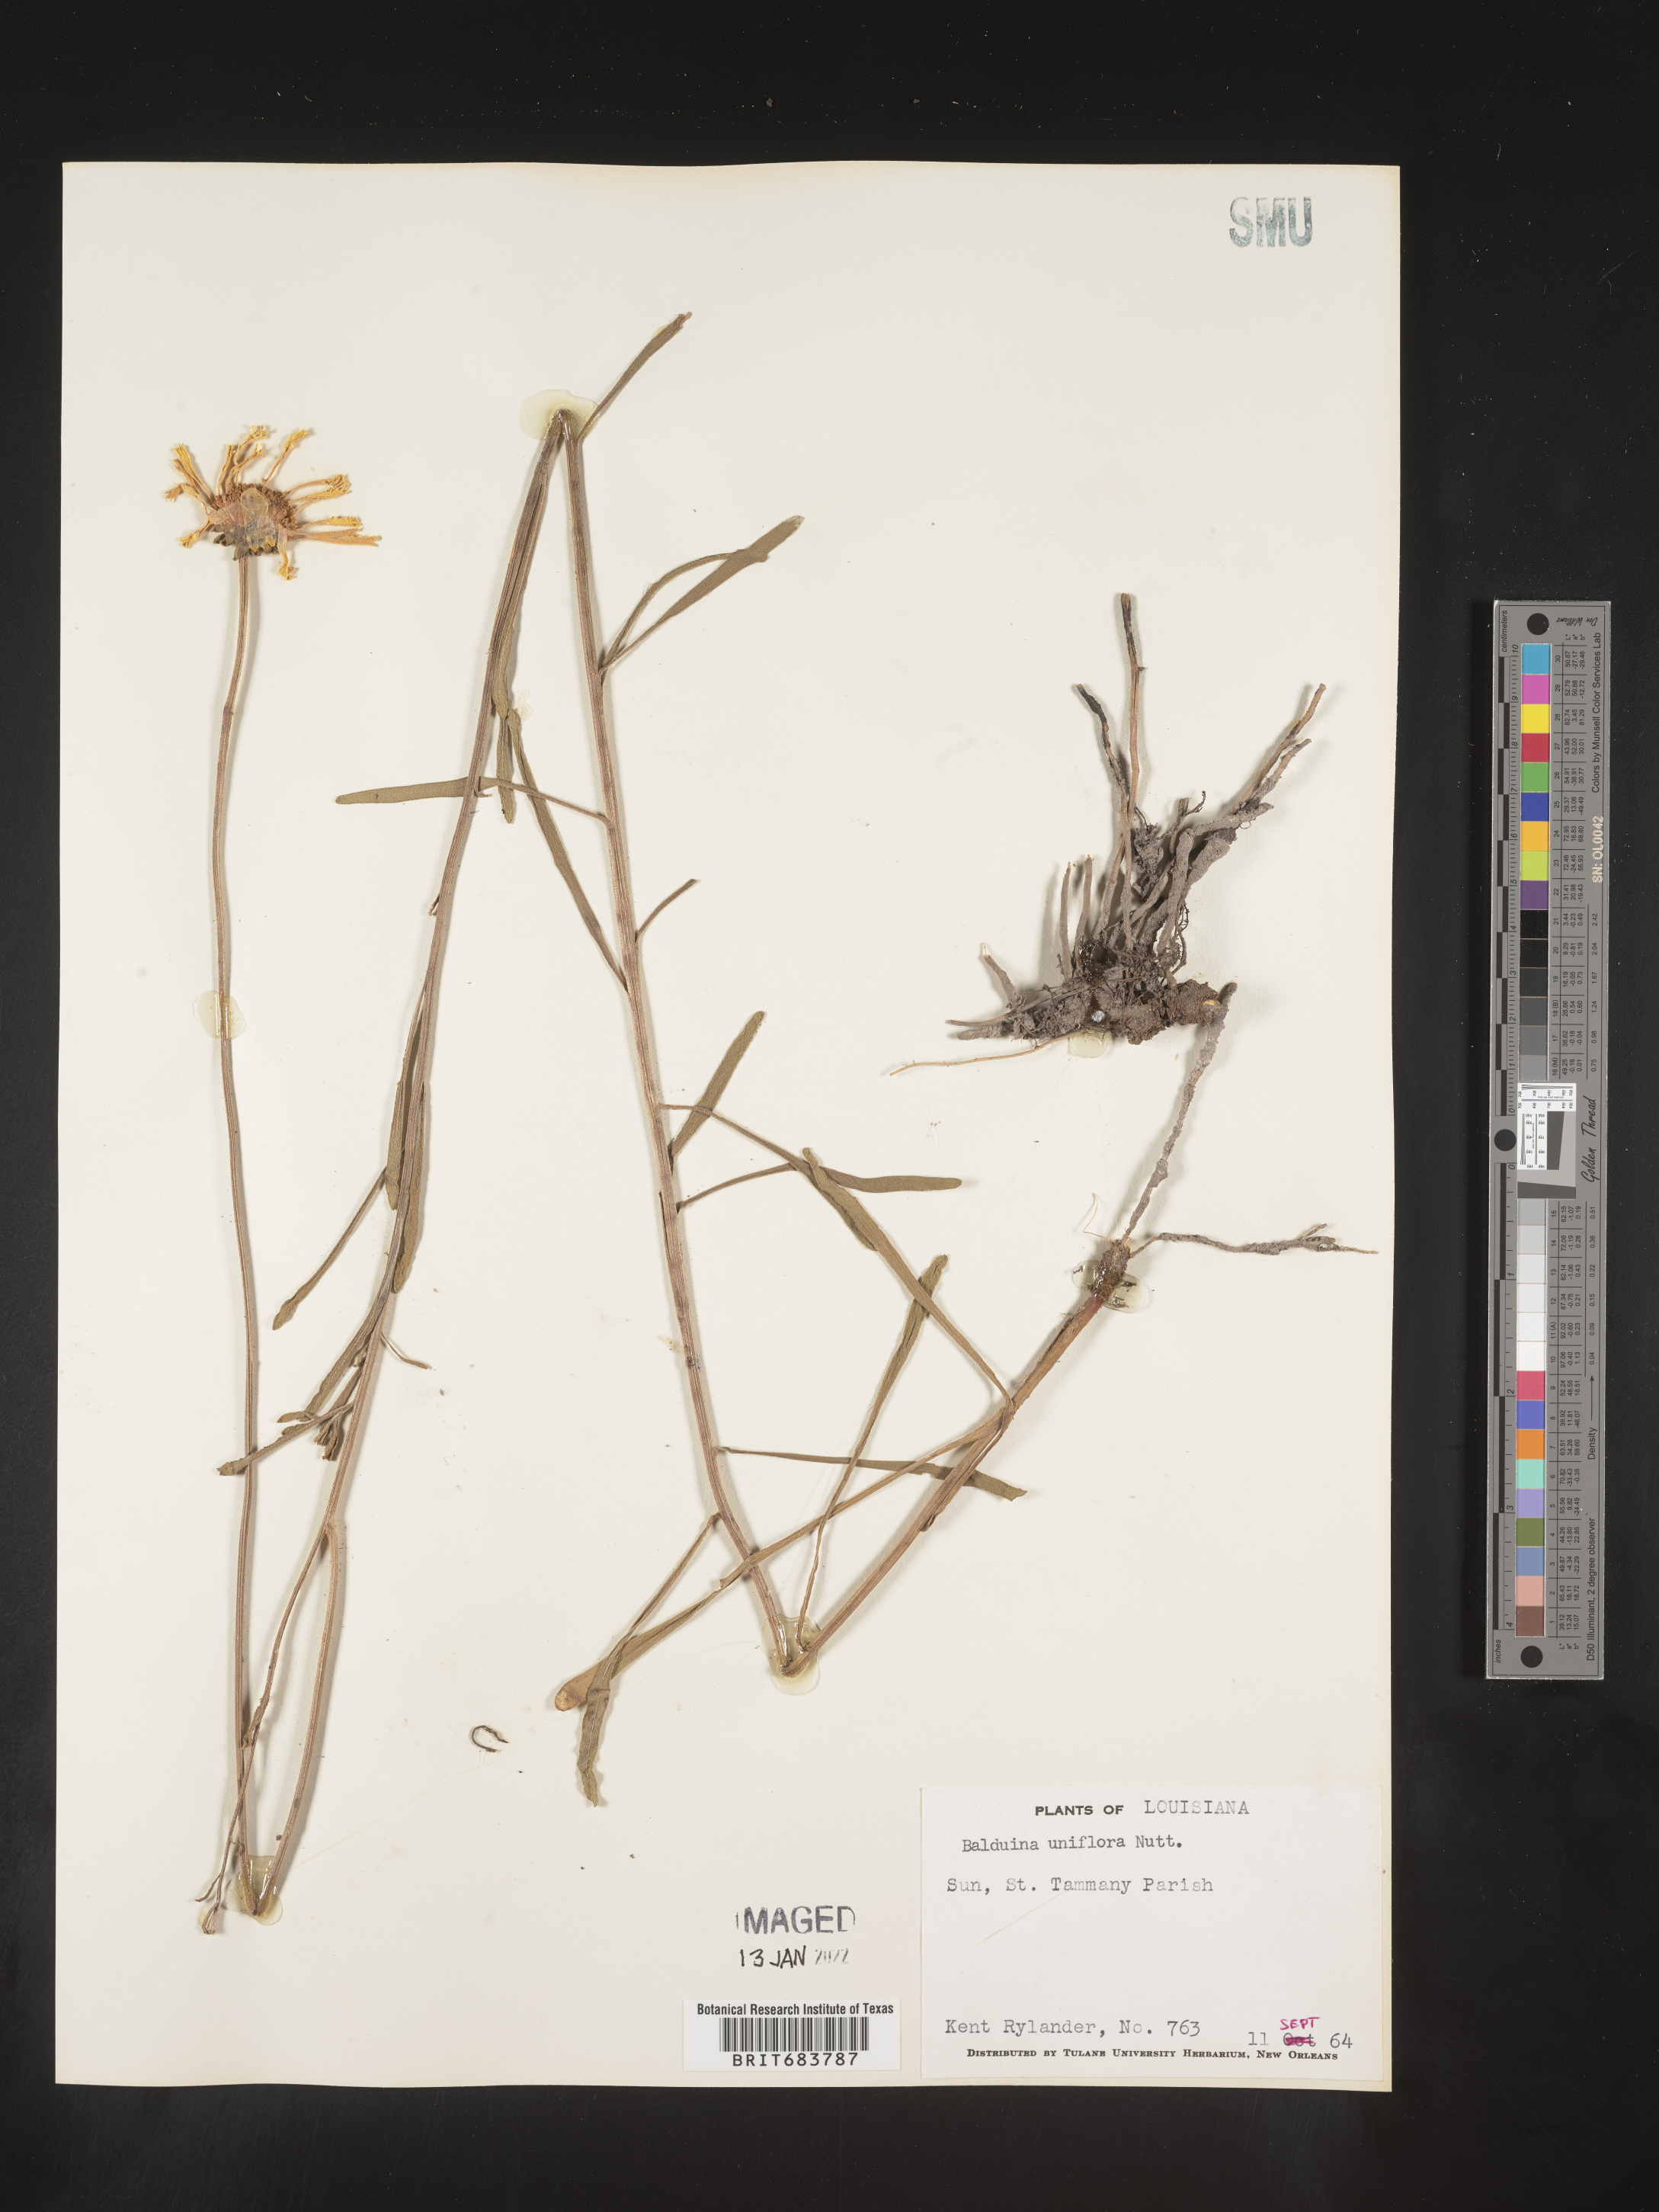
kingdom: Plantae
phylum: Tracheophyta
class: Magnoliopsida
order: Asterales
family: Asteraceae
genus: Balduina
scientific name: Balduina uniflora
